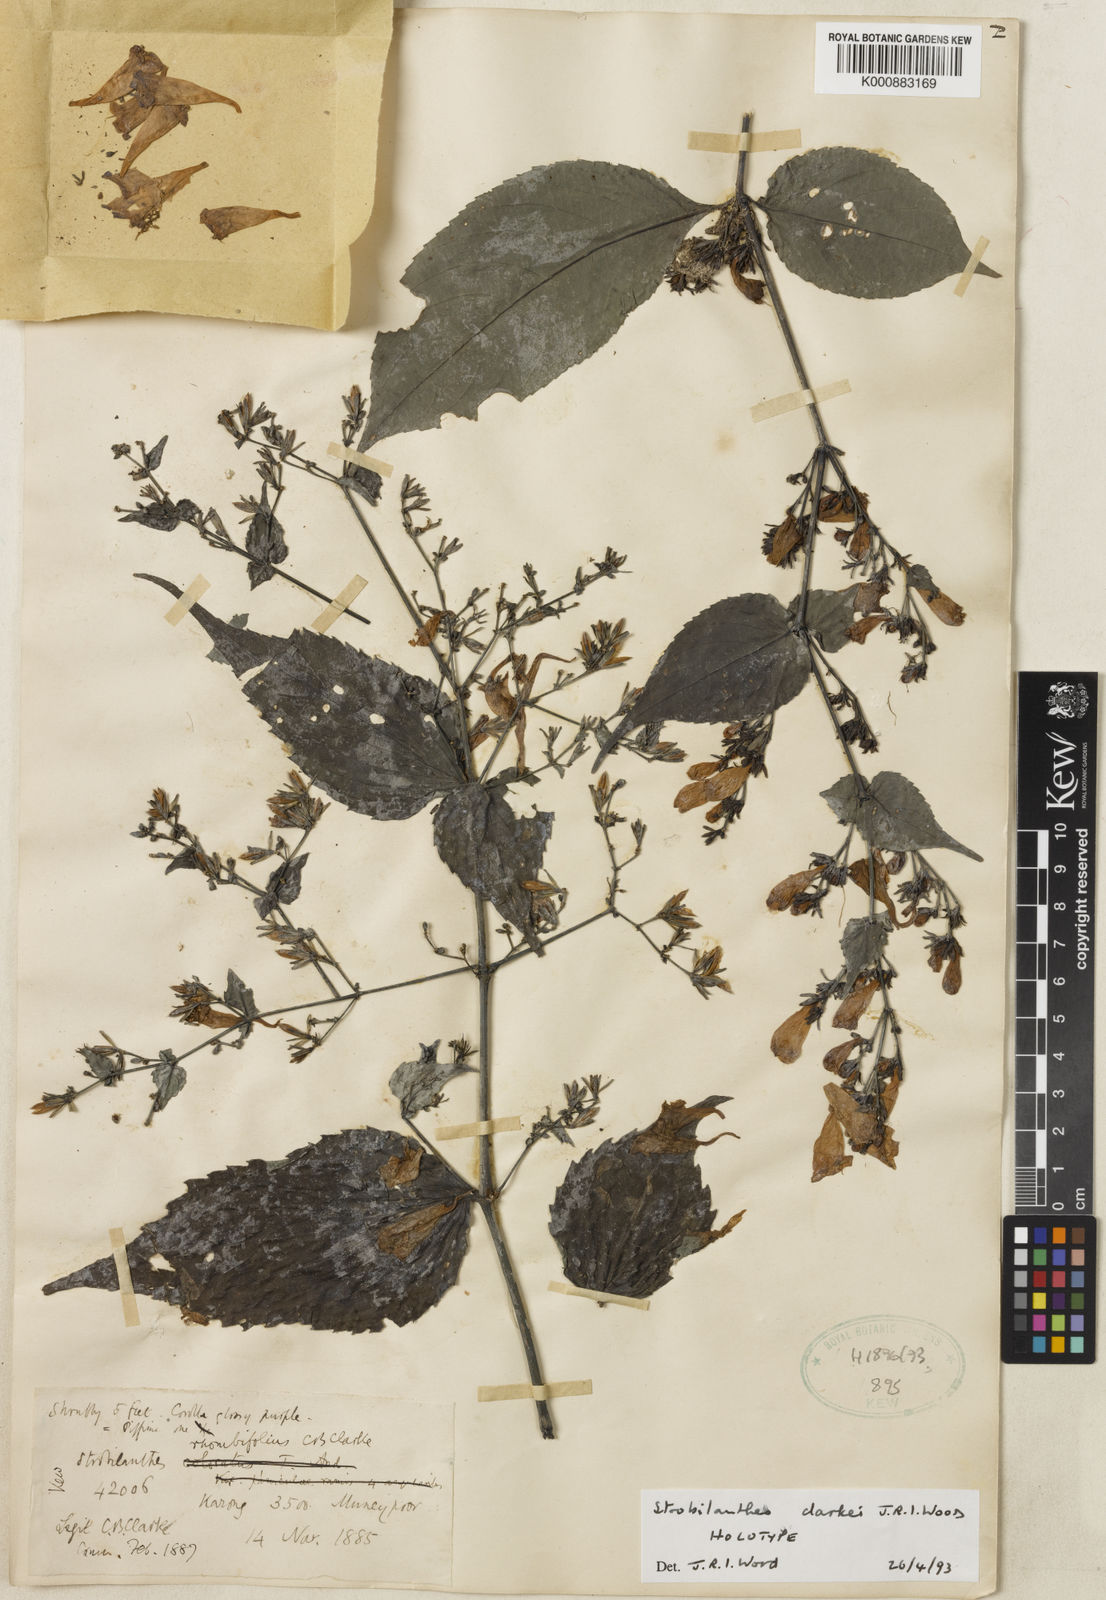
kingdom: Plantae
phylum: Tracheophyta
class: Magnoliopsida
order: Lamiales
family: Acanthaceae
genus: Strobilanthes
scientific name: Strobilanthes clarkei
